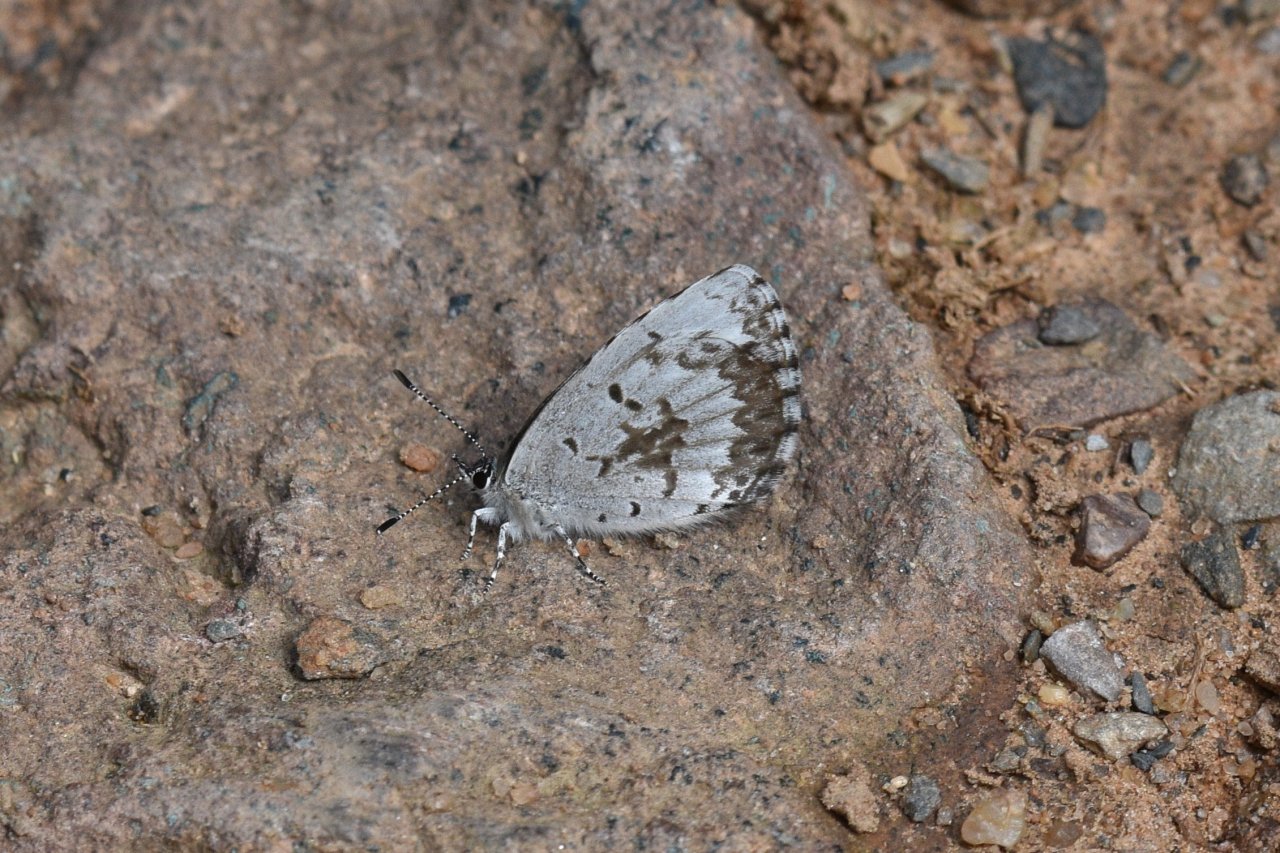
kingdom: Animalia
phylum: Arthropoda
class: Insecta
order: Lepidoptera
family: Lycaenidae
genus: Celastrina
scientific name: Celastrina lucia
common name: Northern Spring Azure
